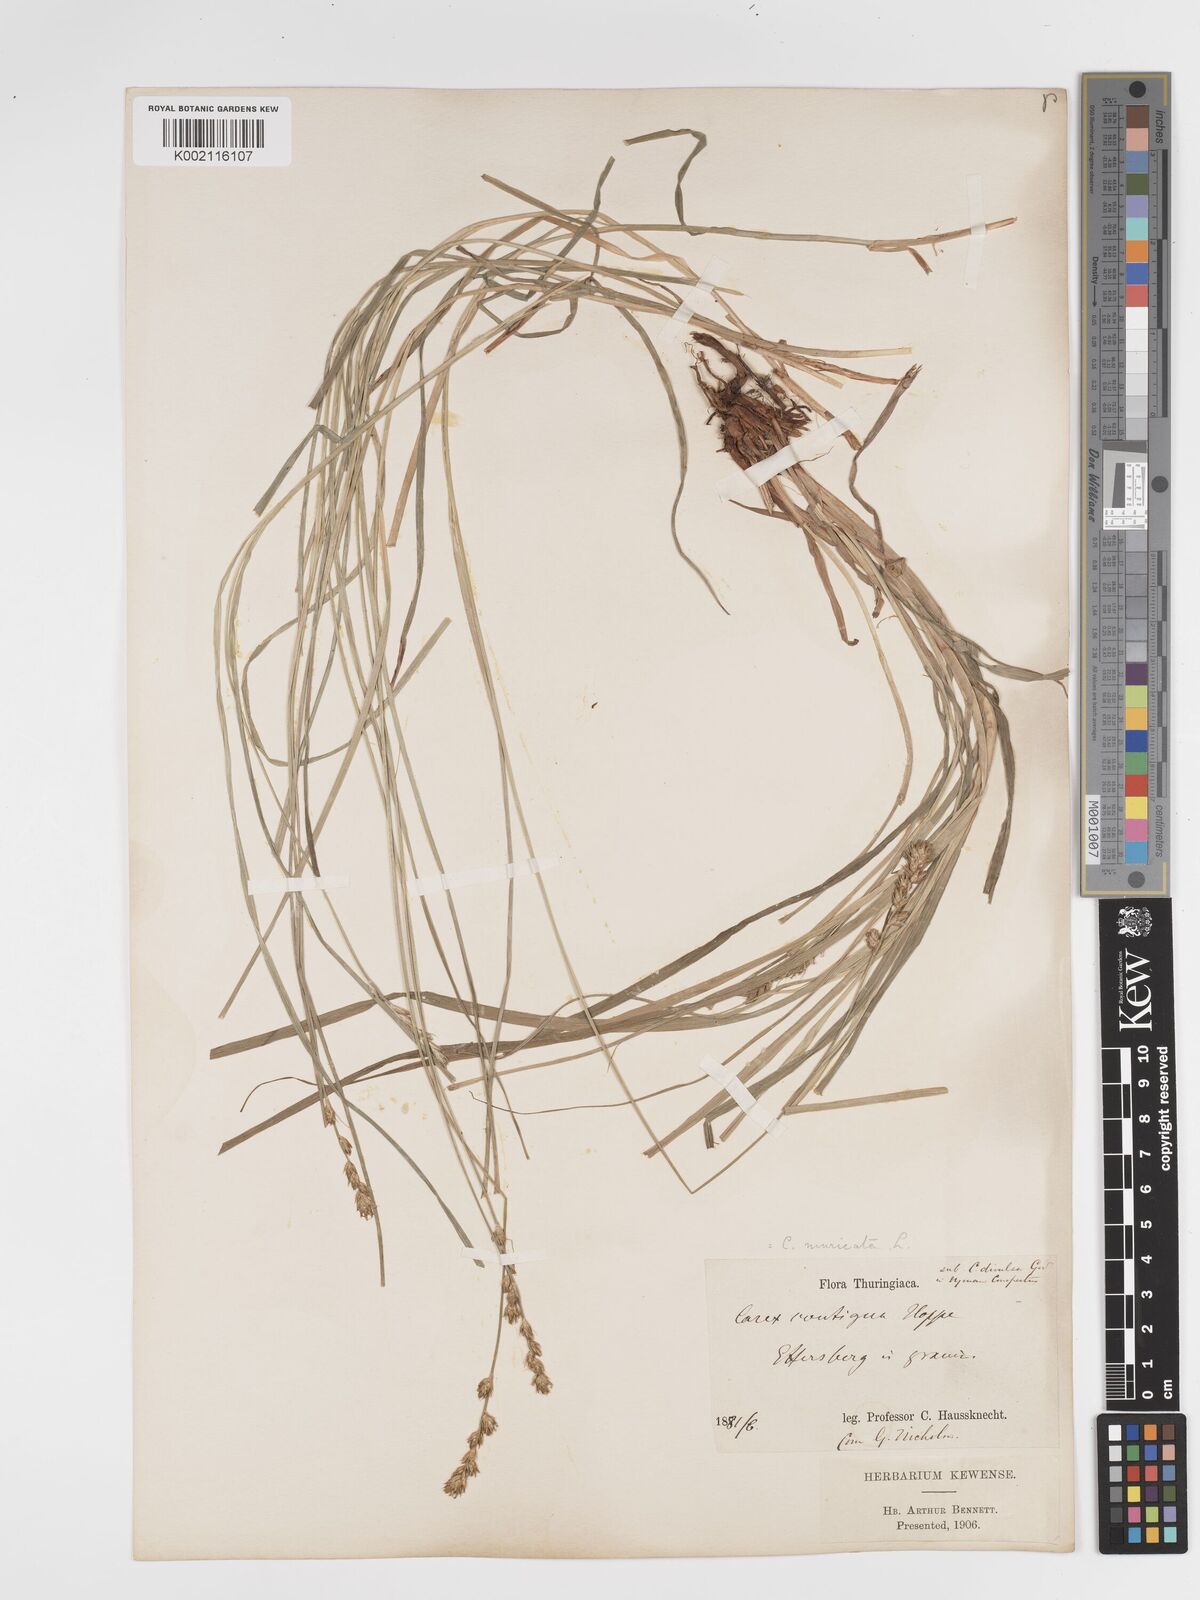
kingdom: Plantae
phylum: Tracheophyta
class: Liliopsida
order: Poales
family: Cyperaceae
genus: Carex
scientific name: Carex spicata
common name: Spiked sedge
